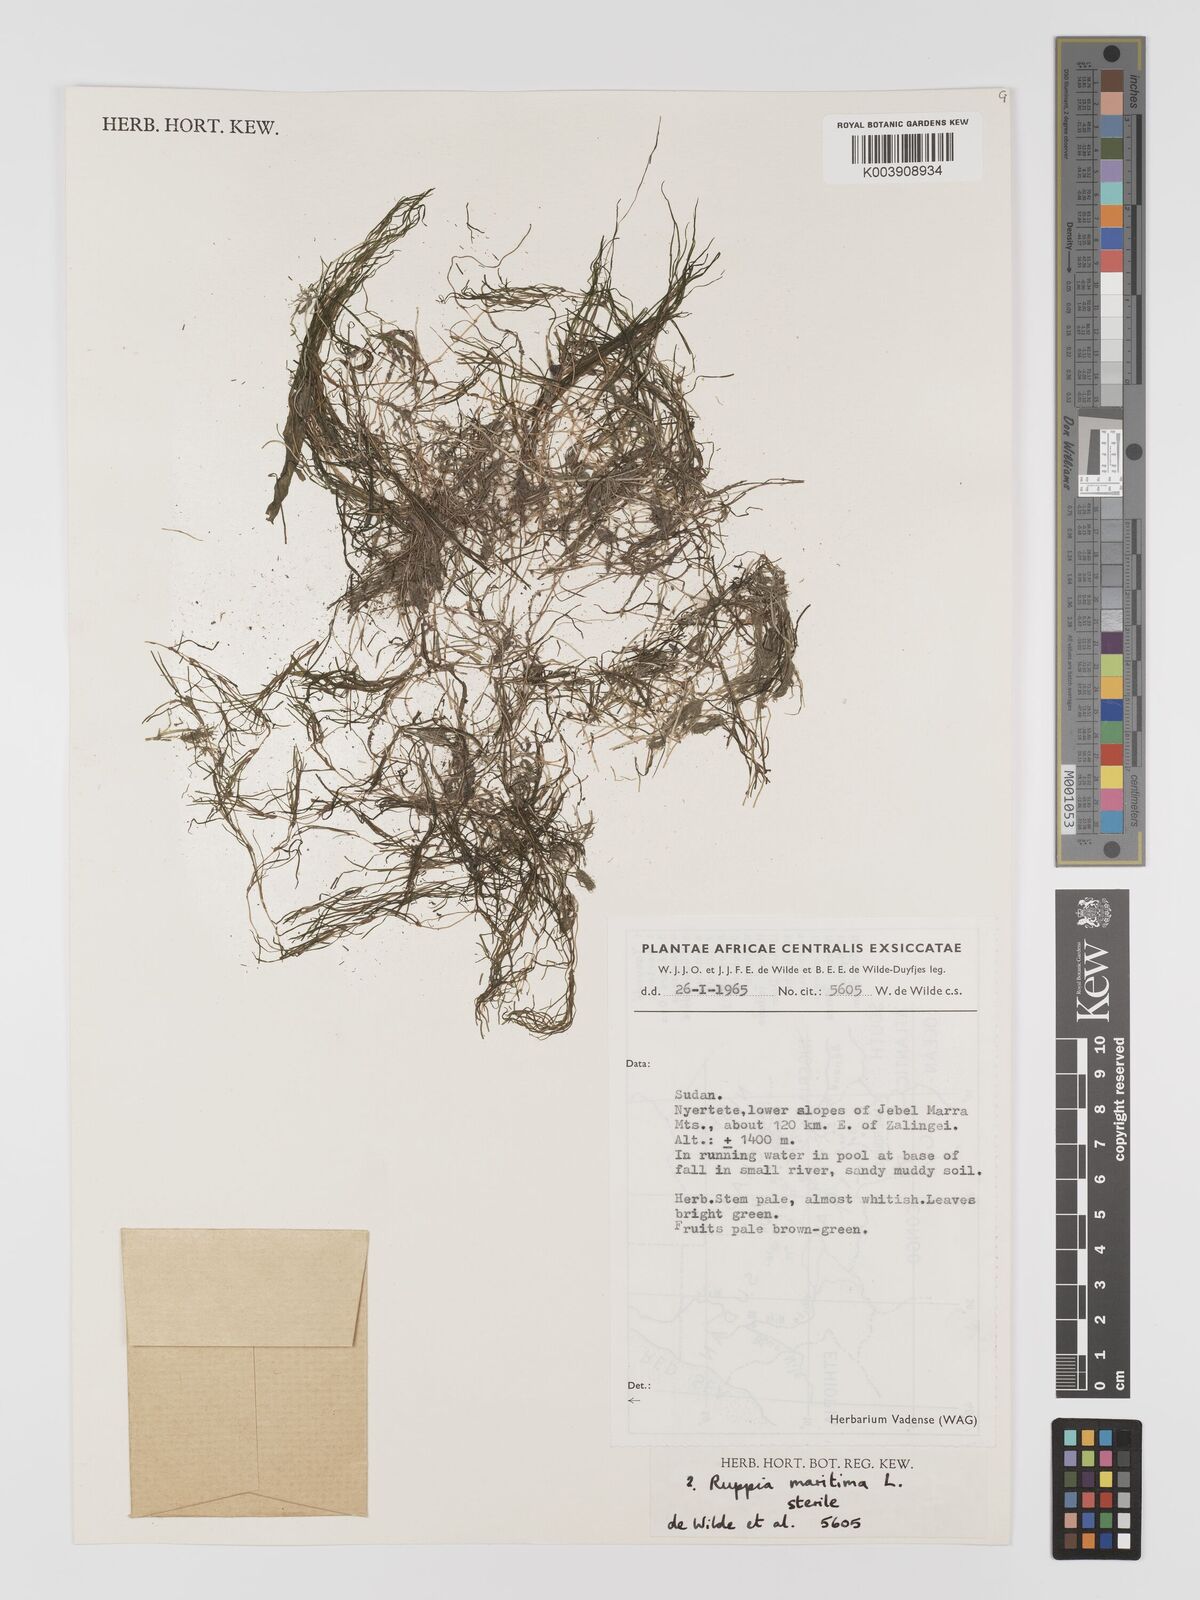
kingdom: Plantae
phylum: Tracheophyta
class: Liliopsida
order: Alismatales
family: Ruppiaceae
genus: Ruppia
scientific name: Ruppia maritima
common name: Beaked tasselweed
